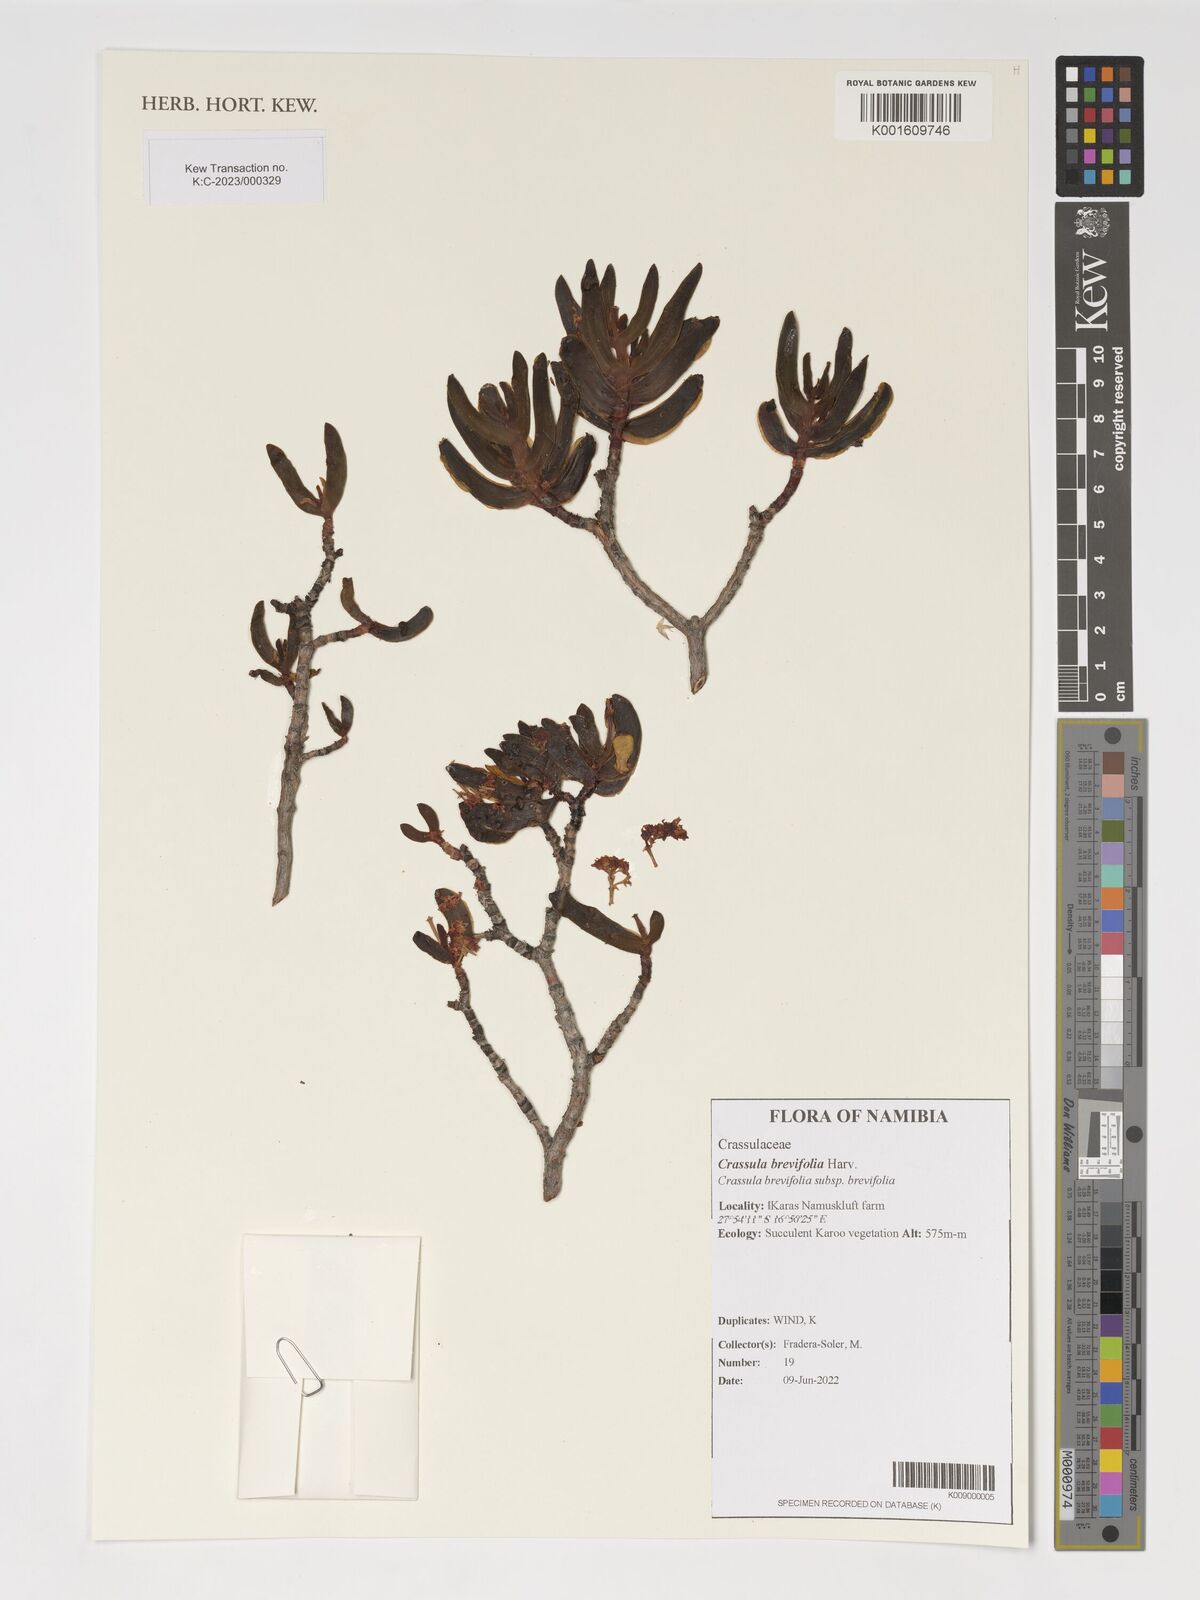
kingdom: Plantae
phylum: Tracheophyta
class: Magnoliopsida
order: Saxifragales
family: Crassulaceae
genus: Crassula
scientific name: Crassula brevifolia
